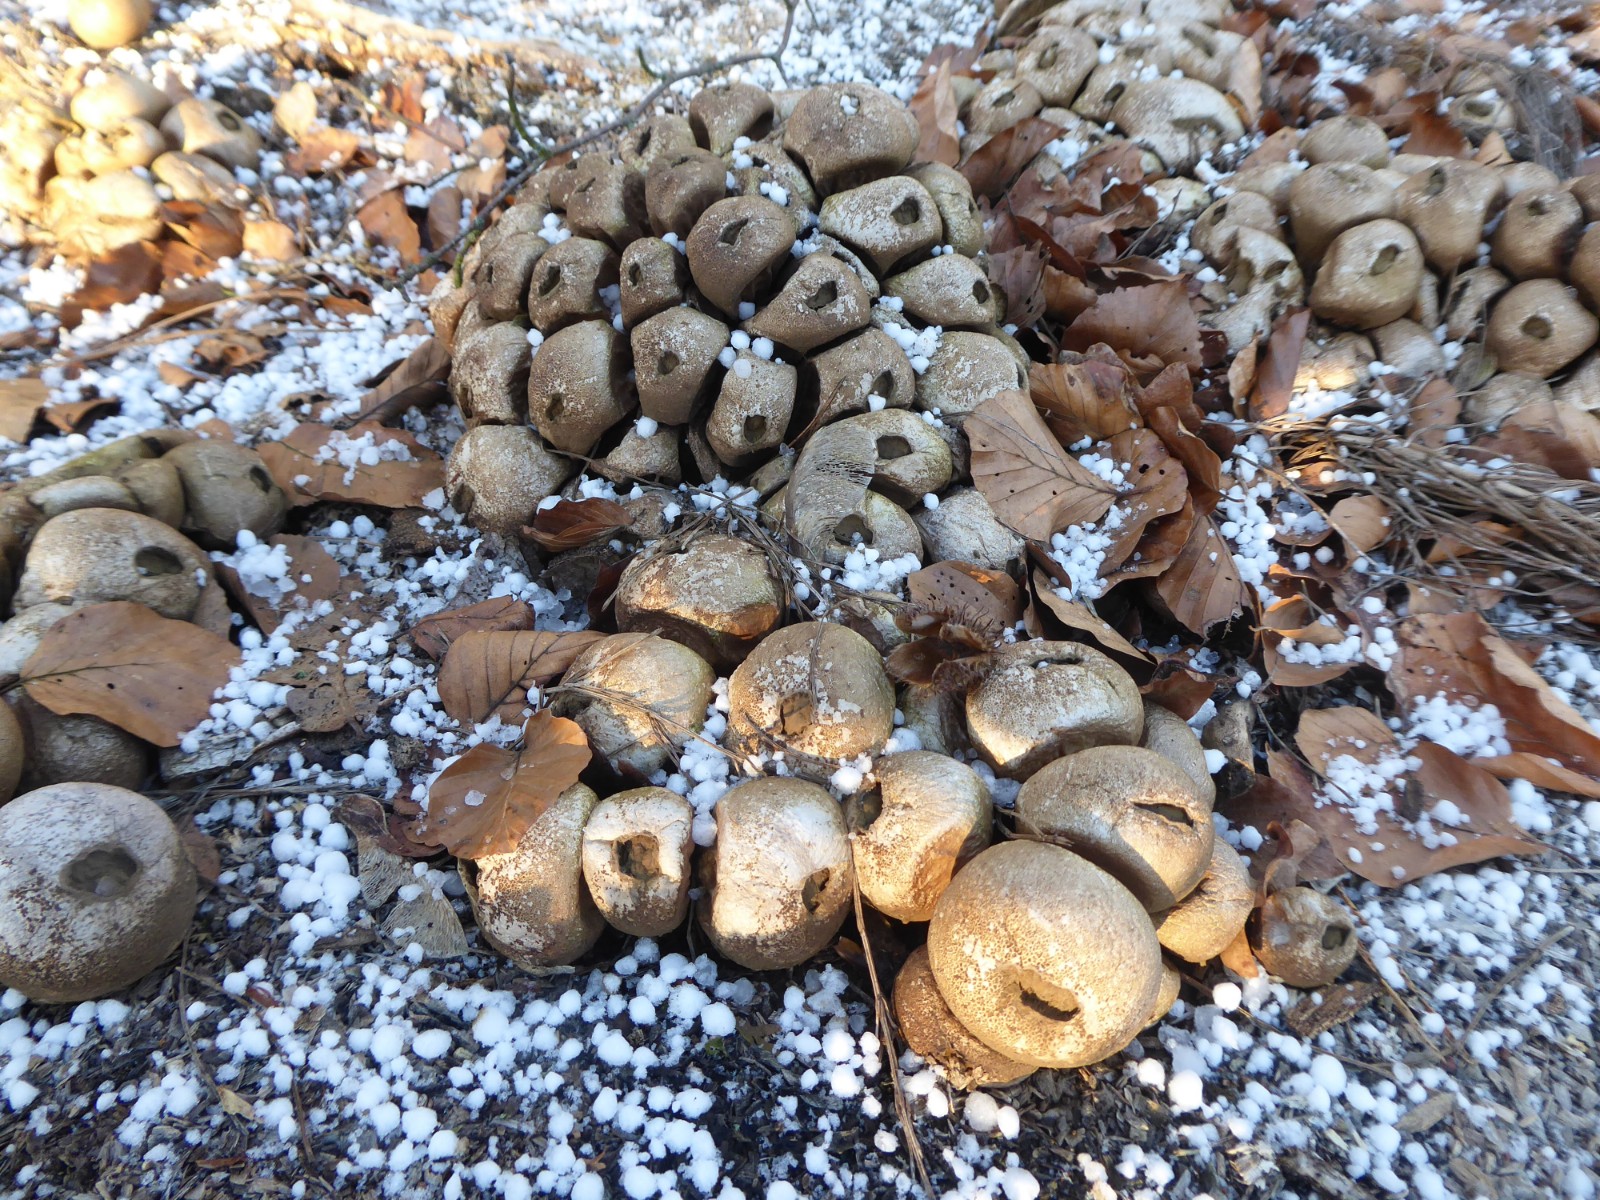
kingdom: Fungi
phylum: Basidiomycota
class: Agaricomycetes
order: Agaricales
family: Lycoperdaceae
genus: Apioperdon
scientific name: Apioperdon pyriforme
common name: pære-støvbold
